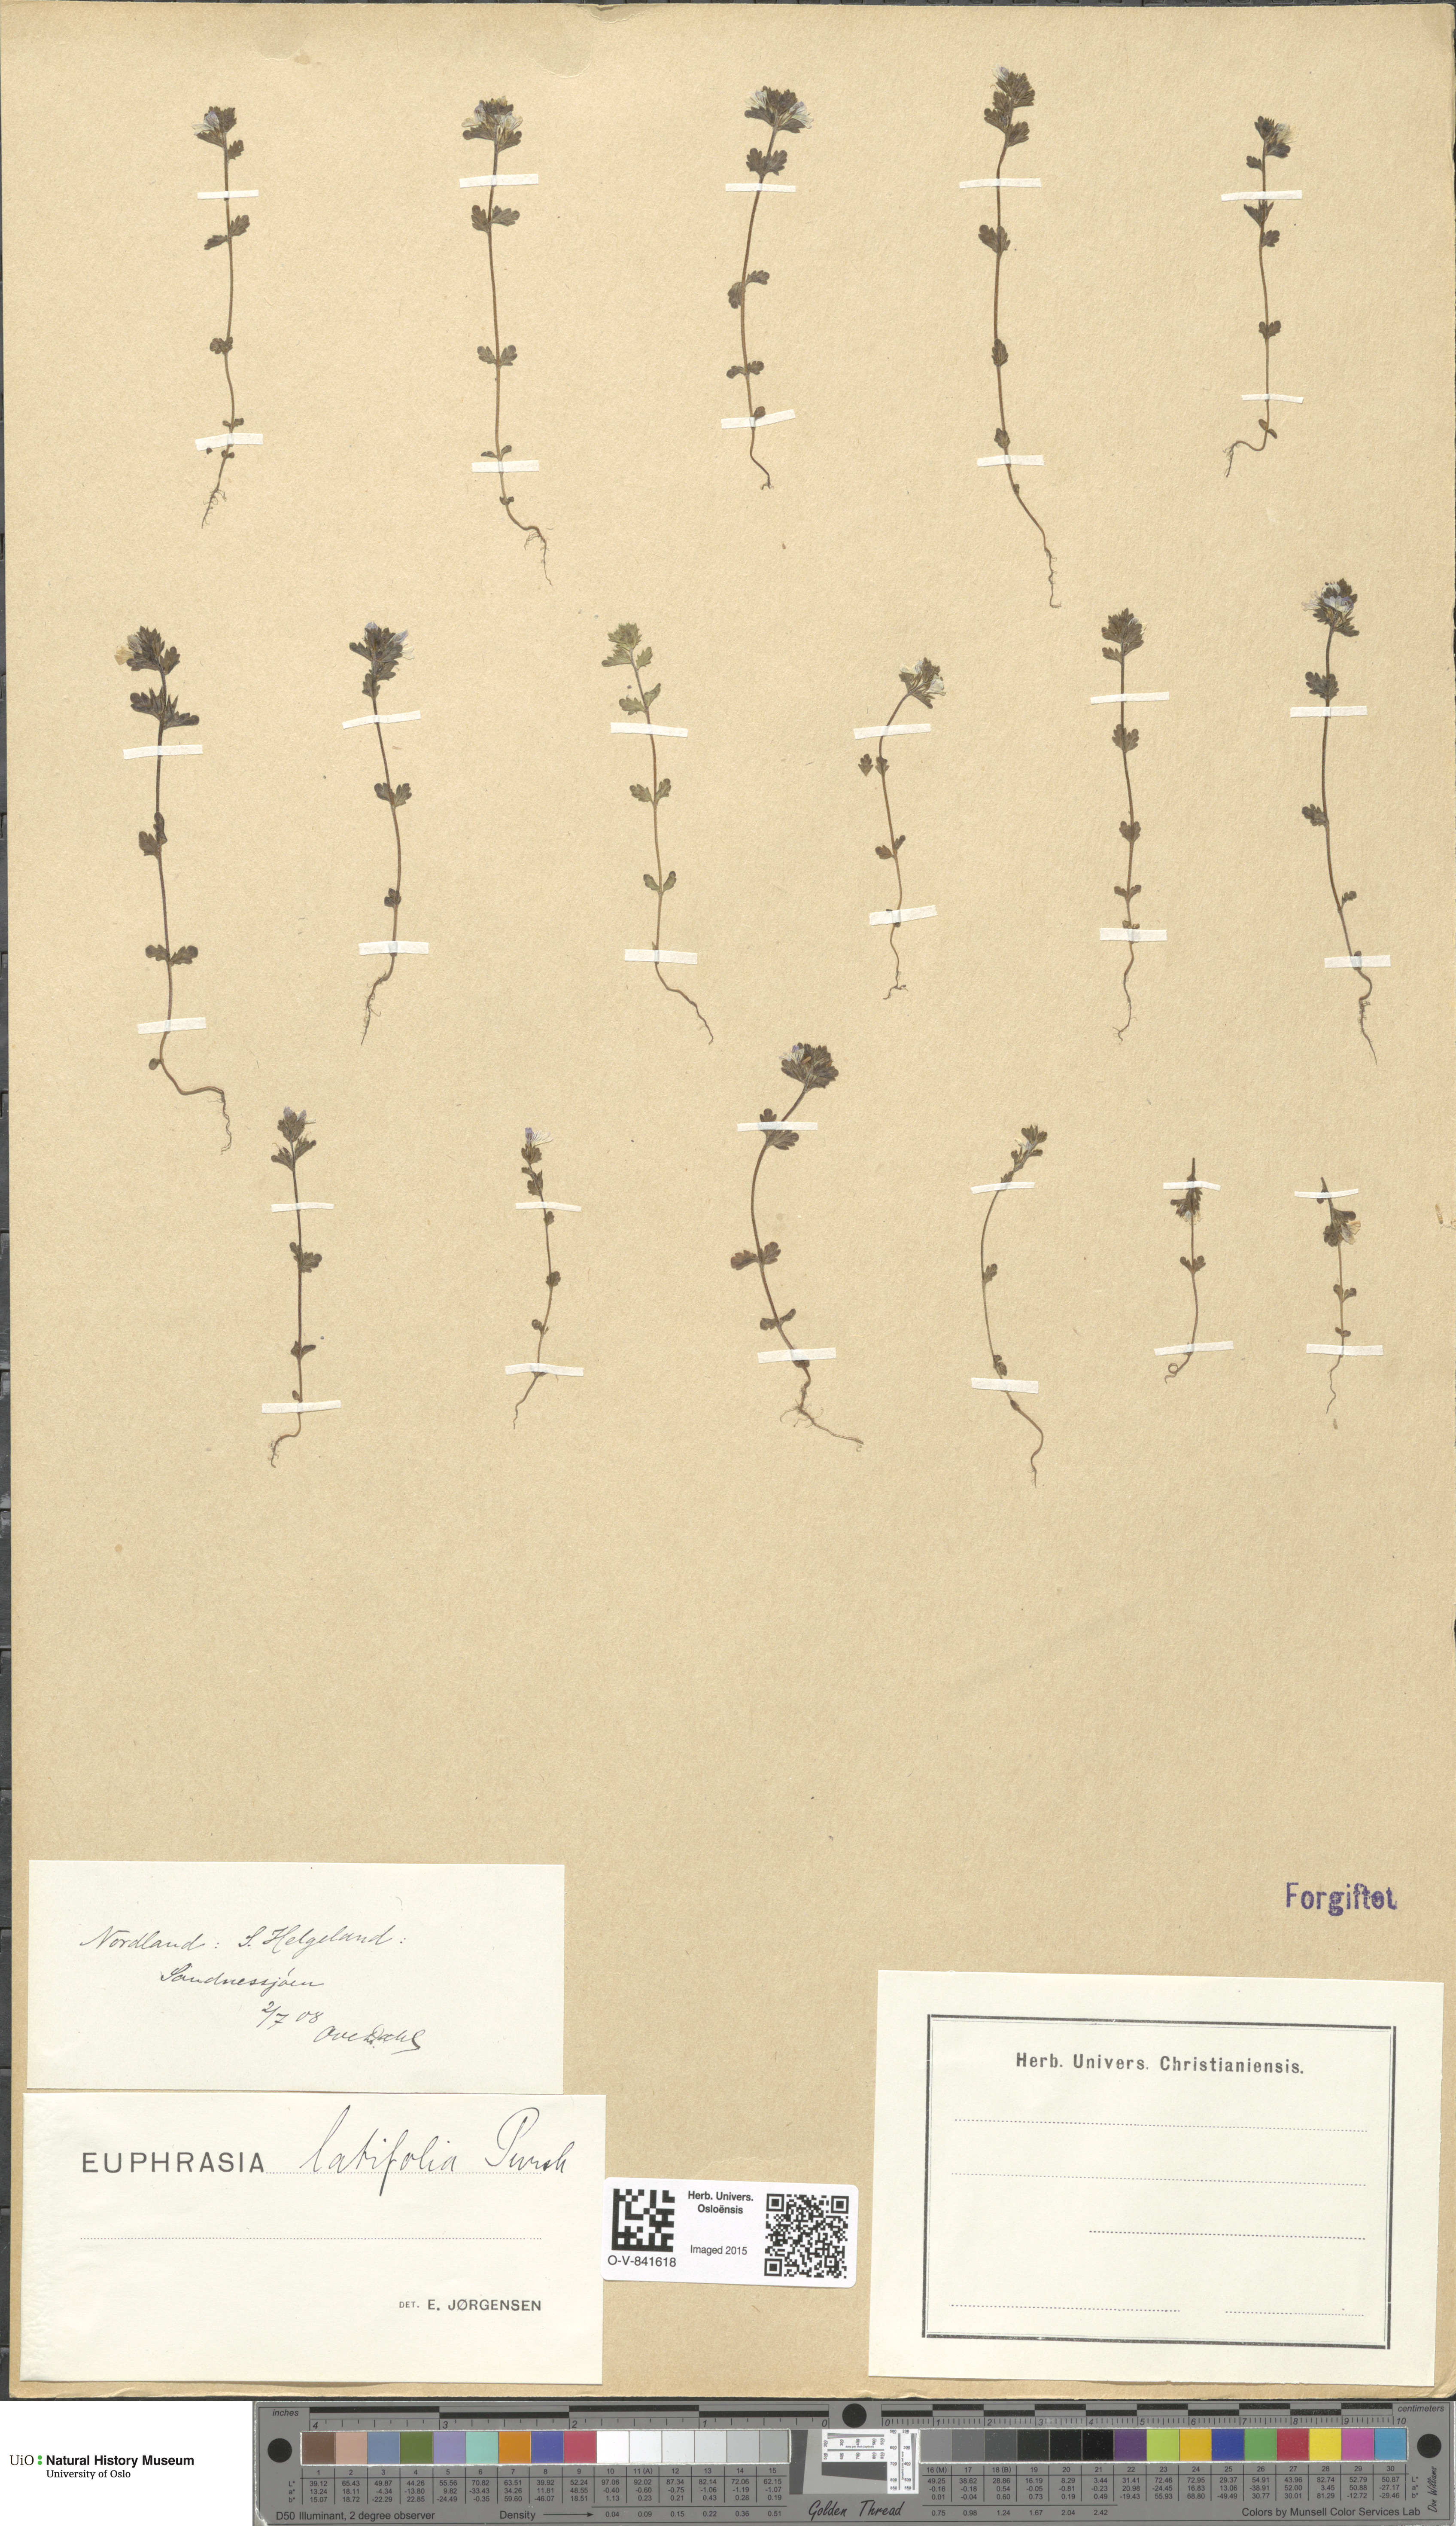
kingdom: Plantae
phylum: Tracheophyta
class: Magnoliopsida
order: Lamiales
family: Orobanchaceae
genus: Euphrasia
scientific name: Euphrasia wettsteinii
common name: Wettstein's eyebright
